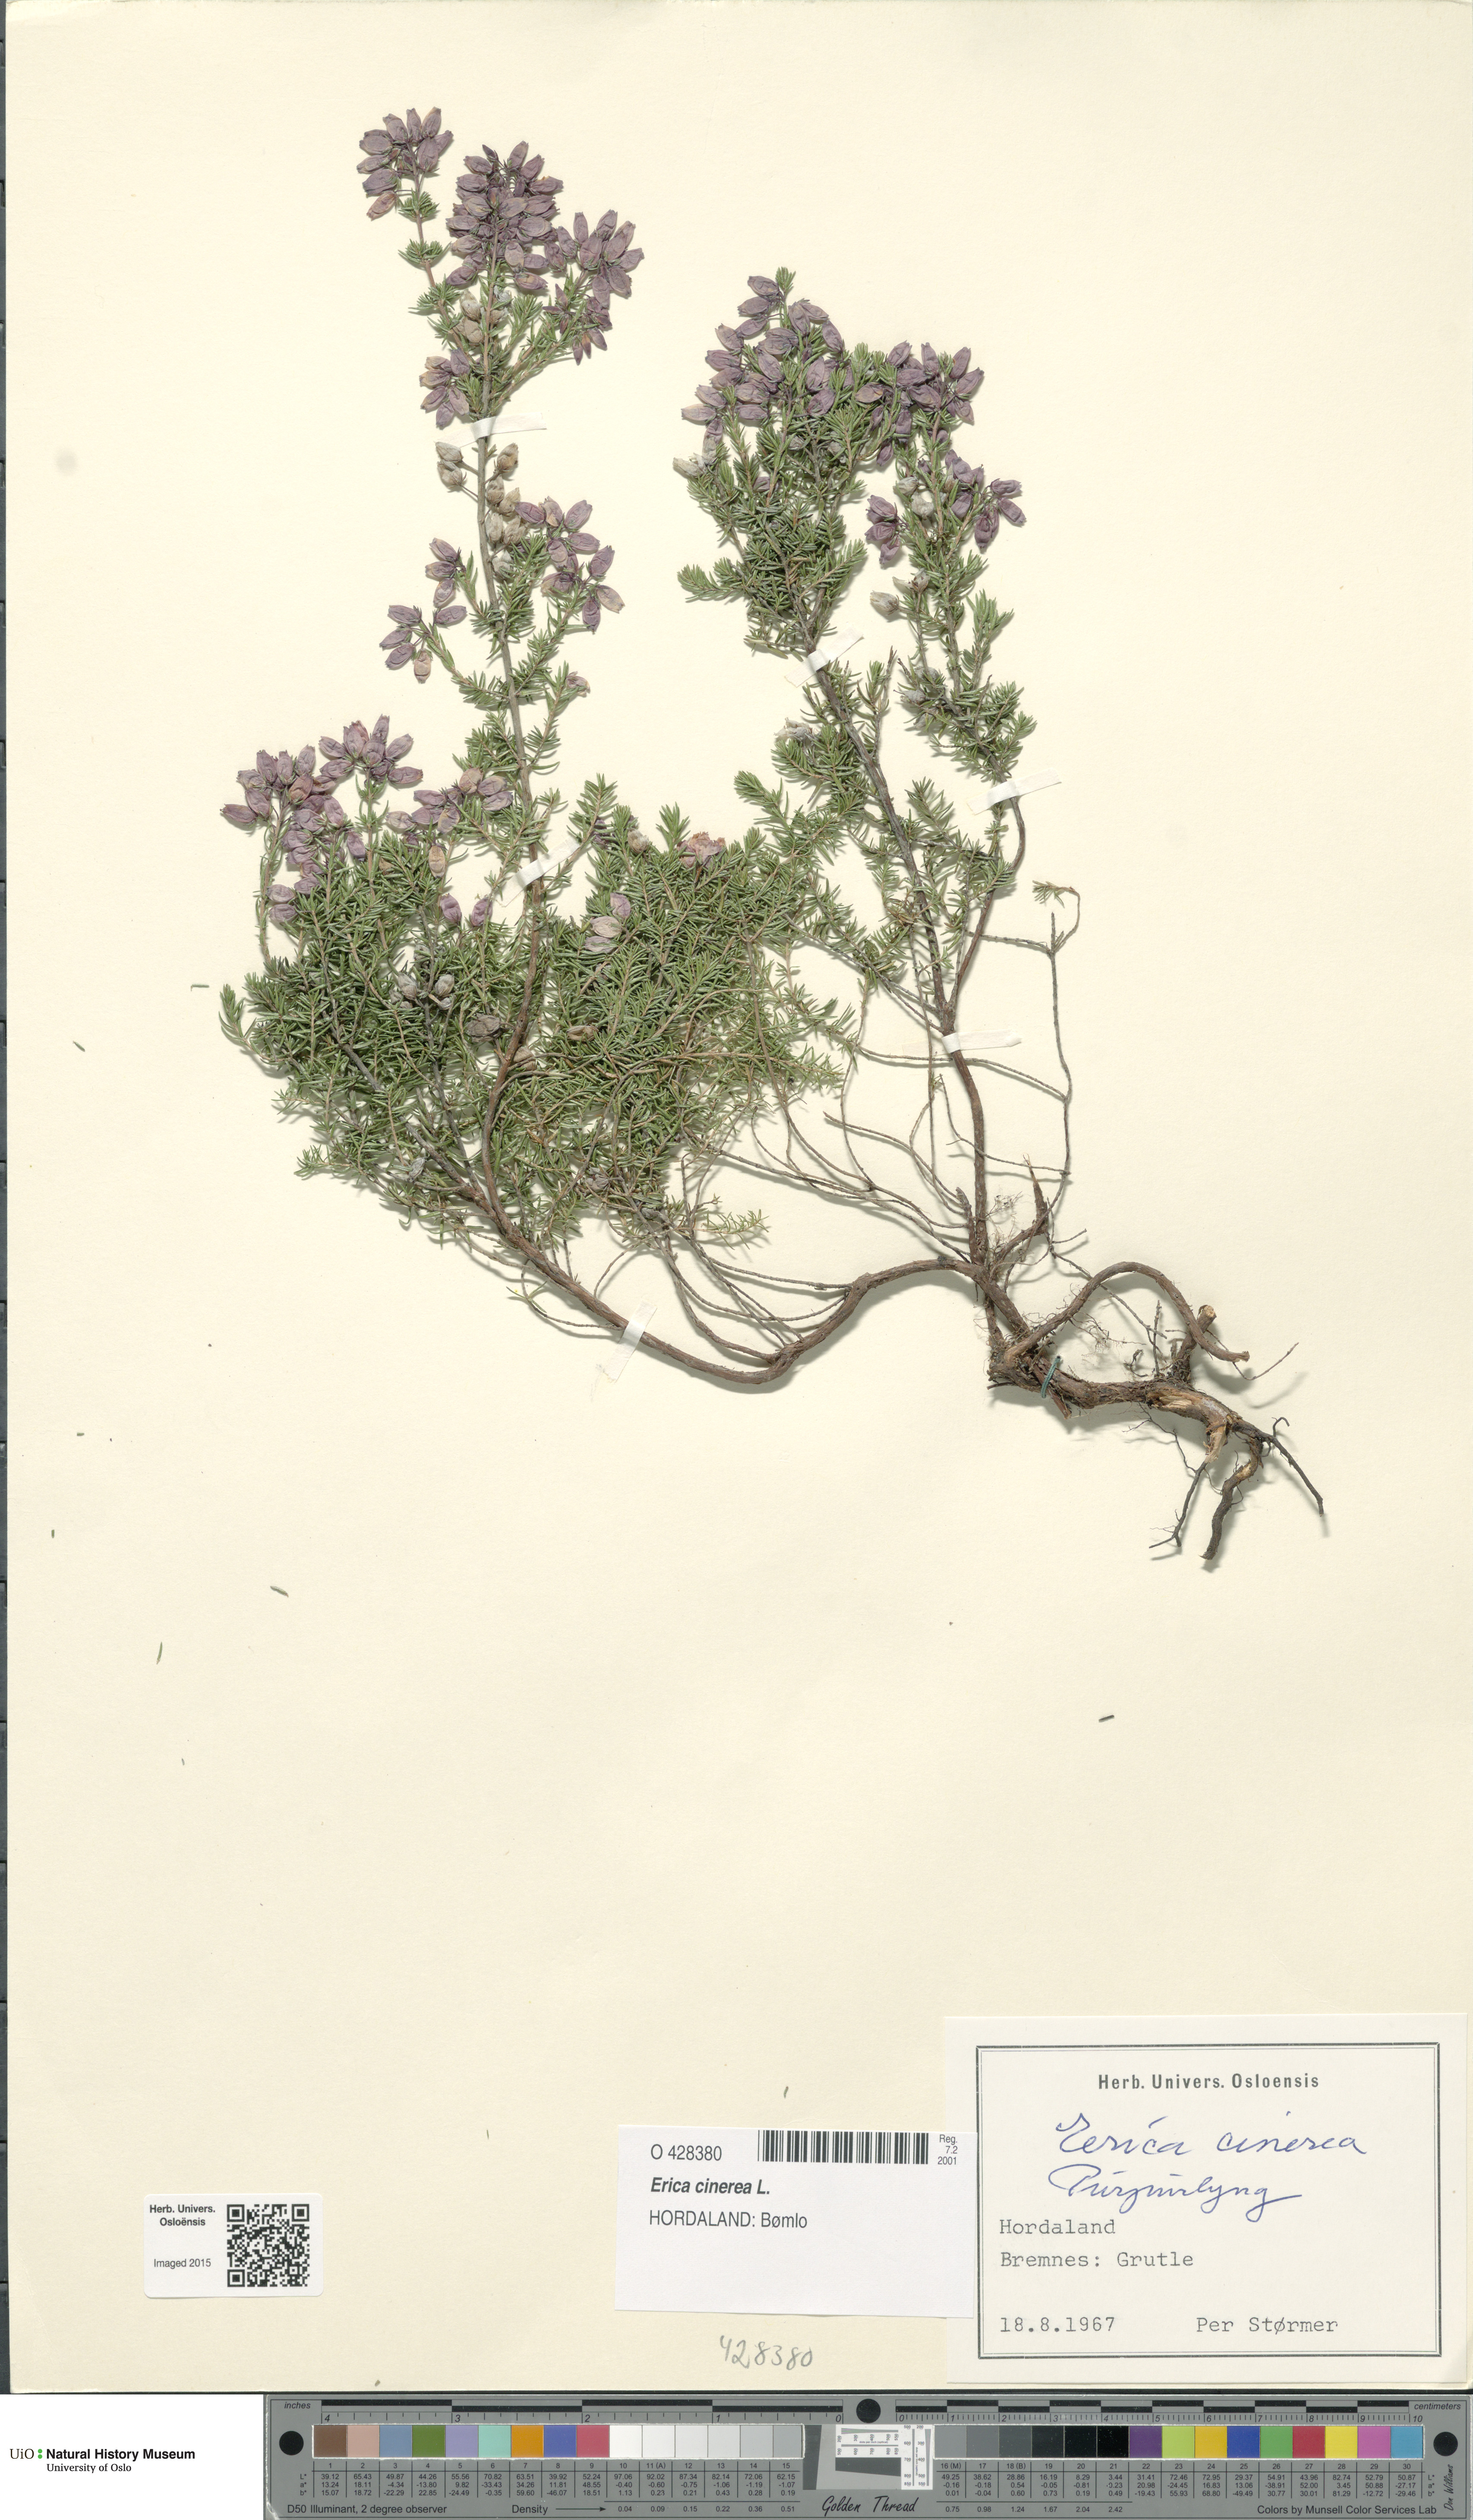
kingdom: Plantae
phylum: Tracheophyta
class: Magnoliopsida
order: Ericales
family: Ericaceae
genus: Erica
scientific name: Erica cinerea
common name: Bell heather
